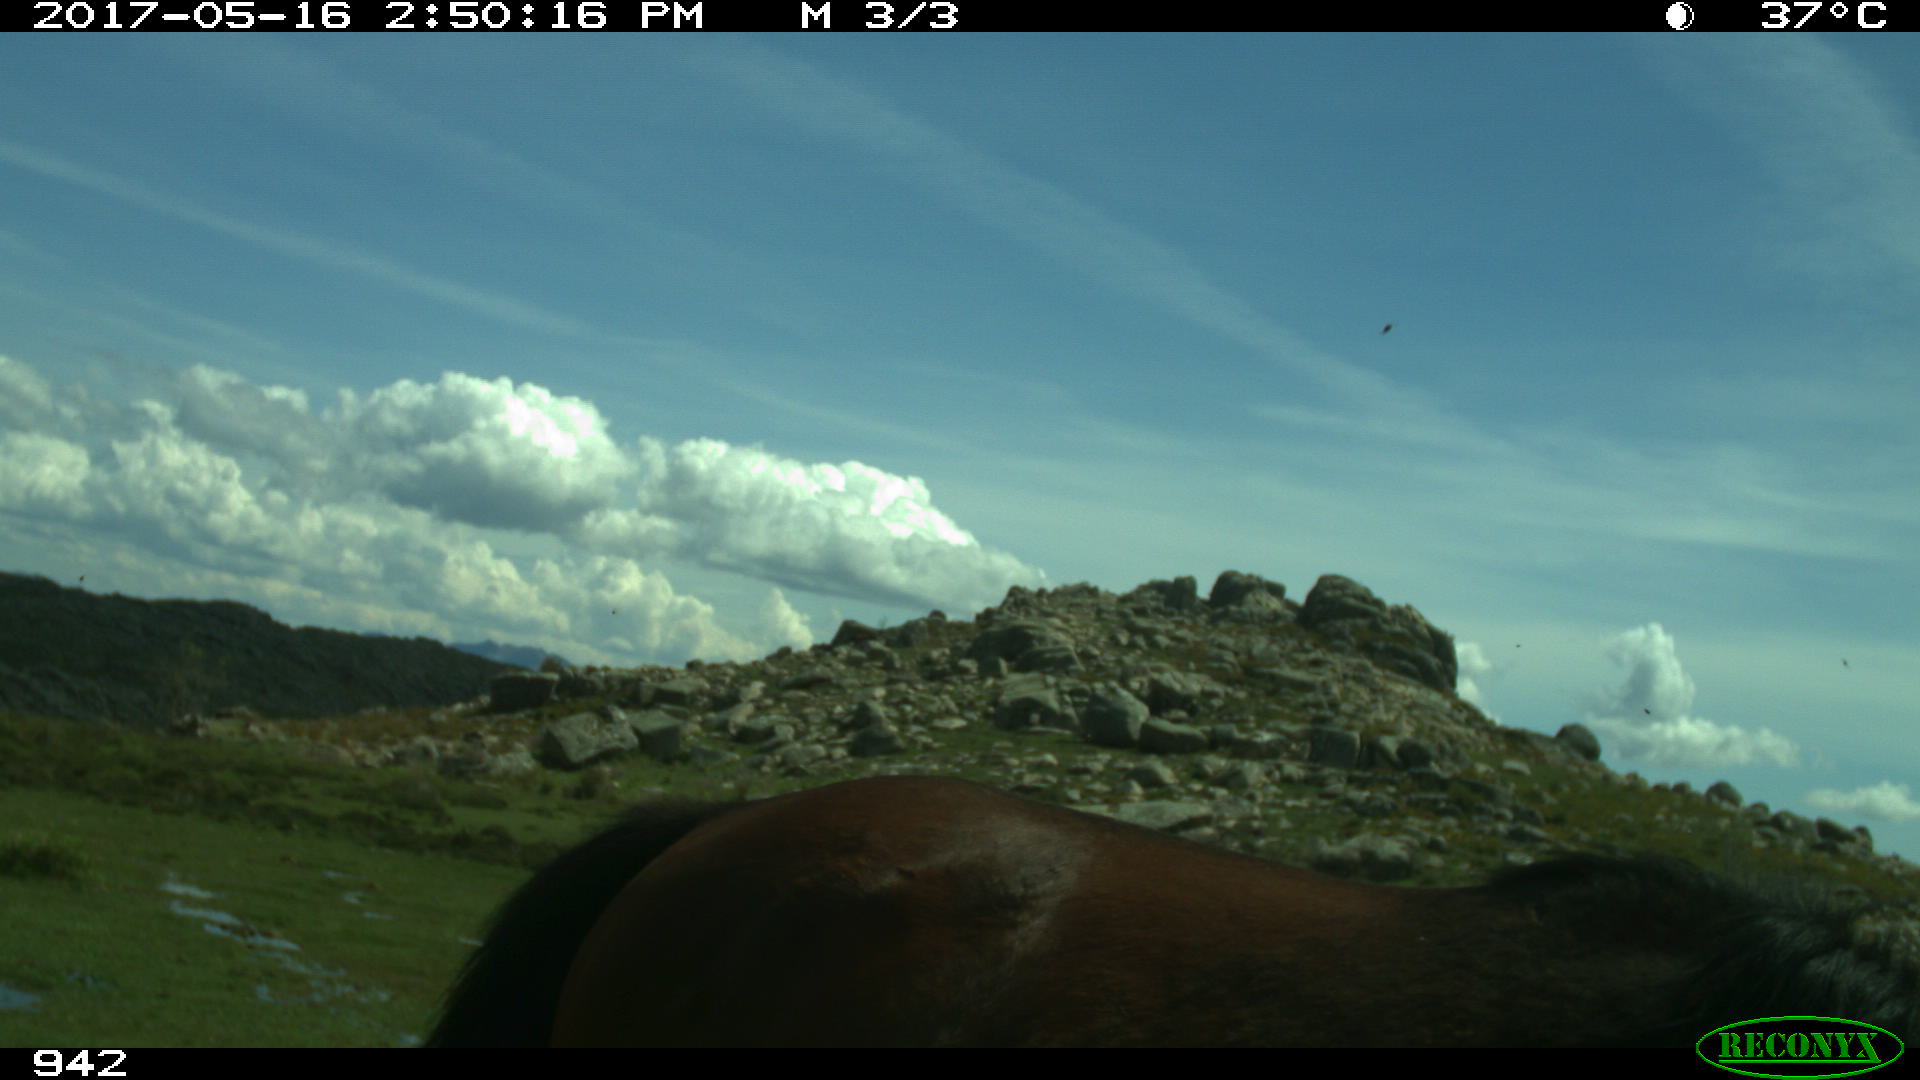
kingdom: Animalia
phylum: Chordata
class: Mammalia
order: Perissodactyla
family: Equidae
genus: Equus
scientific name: Equus caballus
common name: Horse
